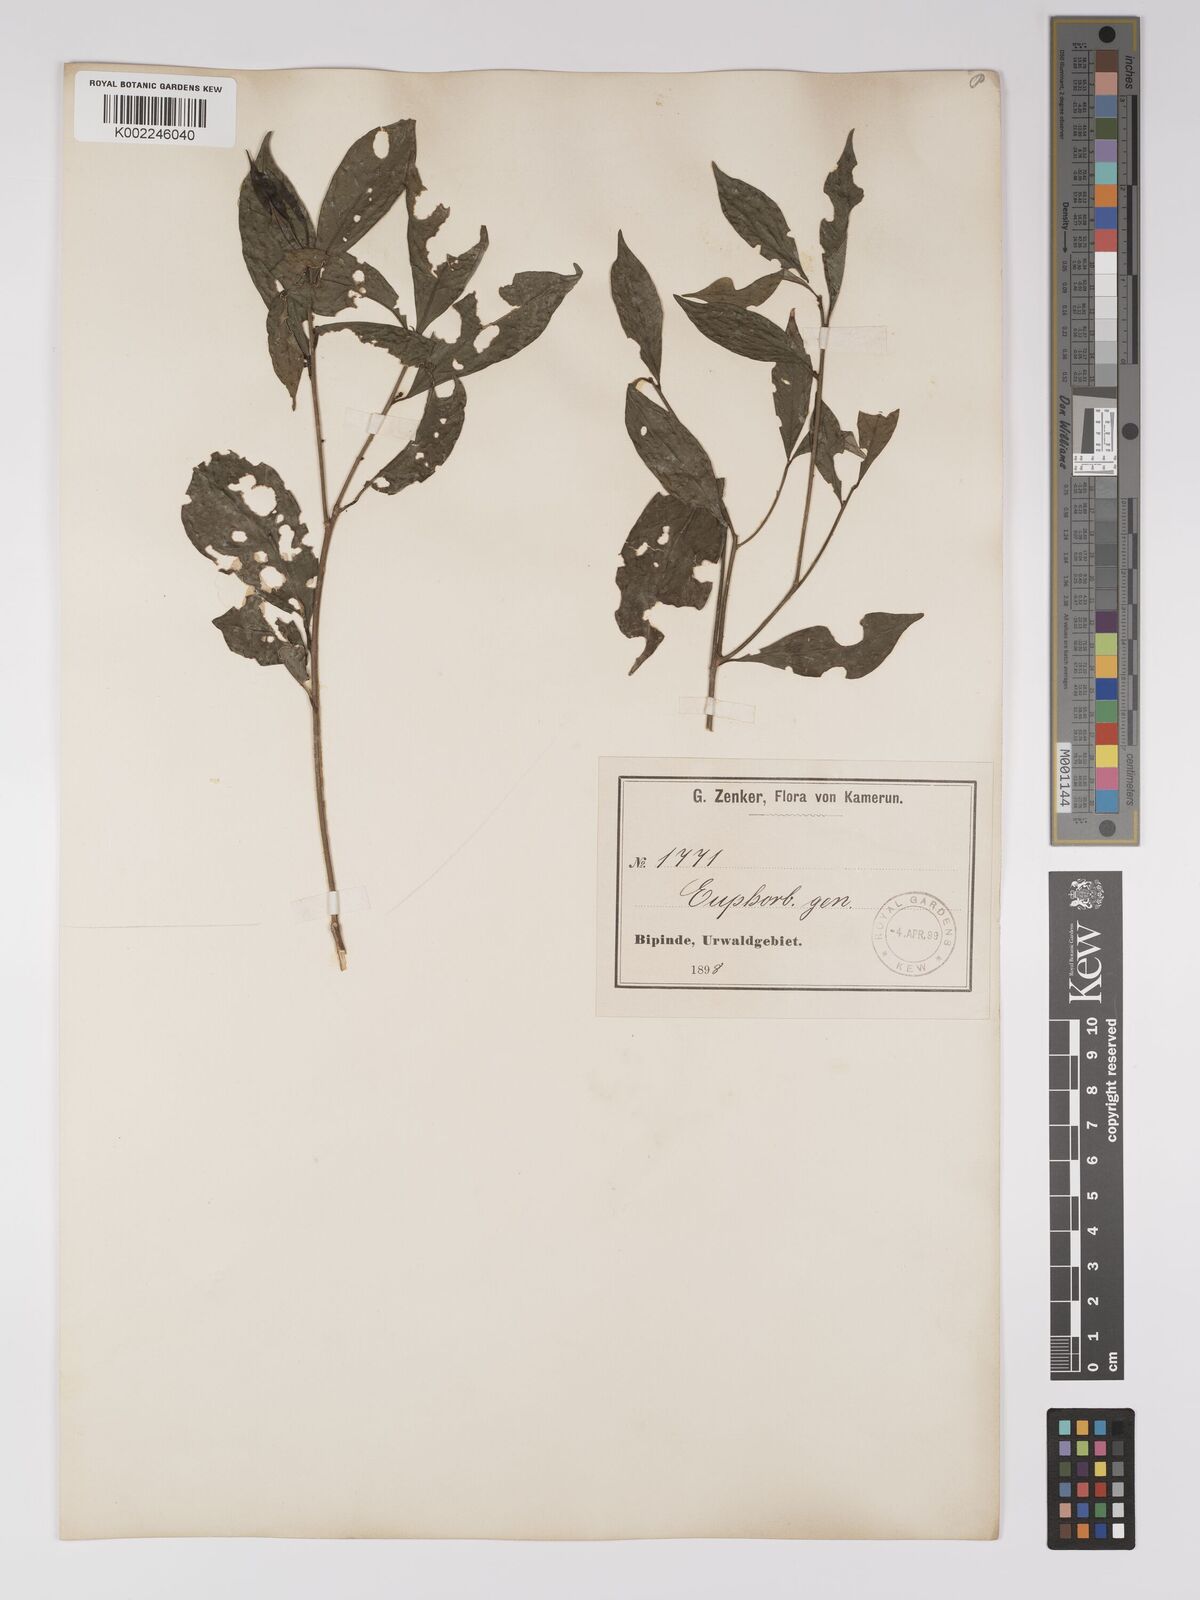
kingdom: Plantae
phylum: Tracheophyta
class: Magnoliopsida
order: Malpighiales
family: Euphorbiaceae
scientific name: Euphorbiaceae
